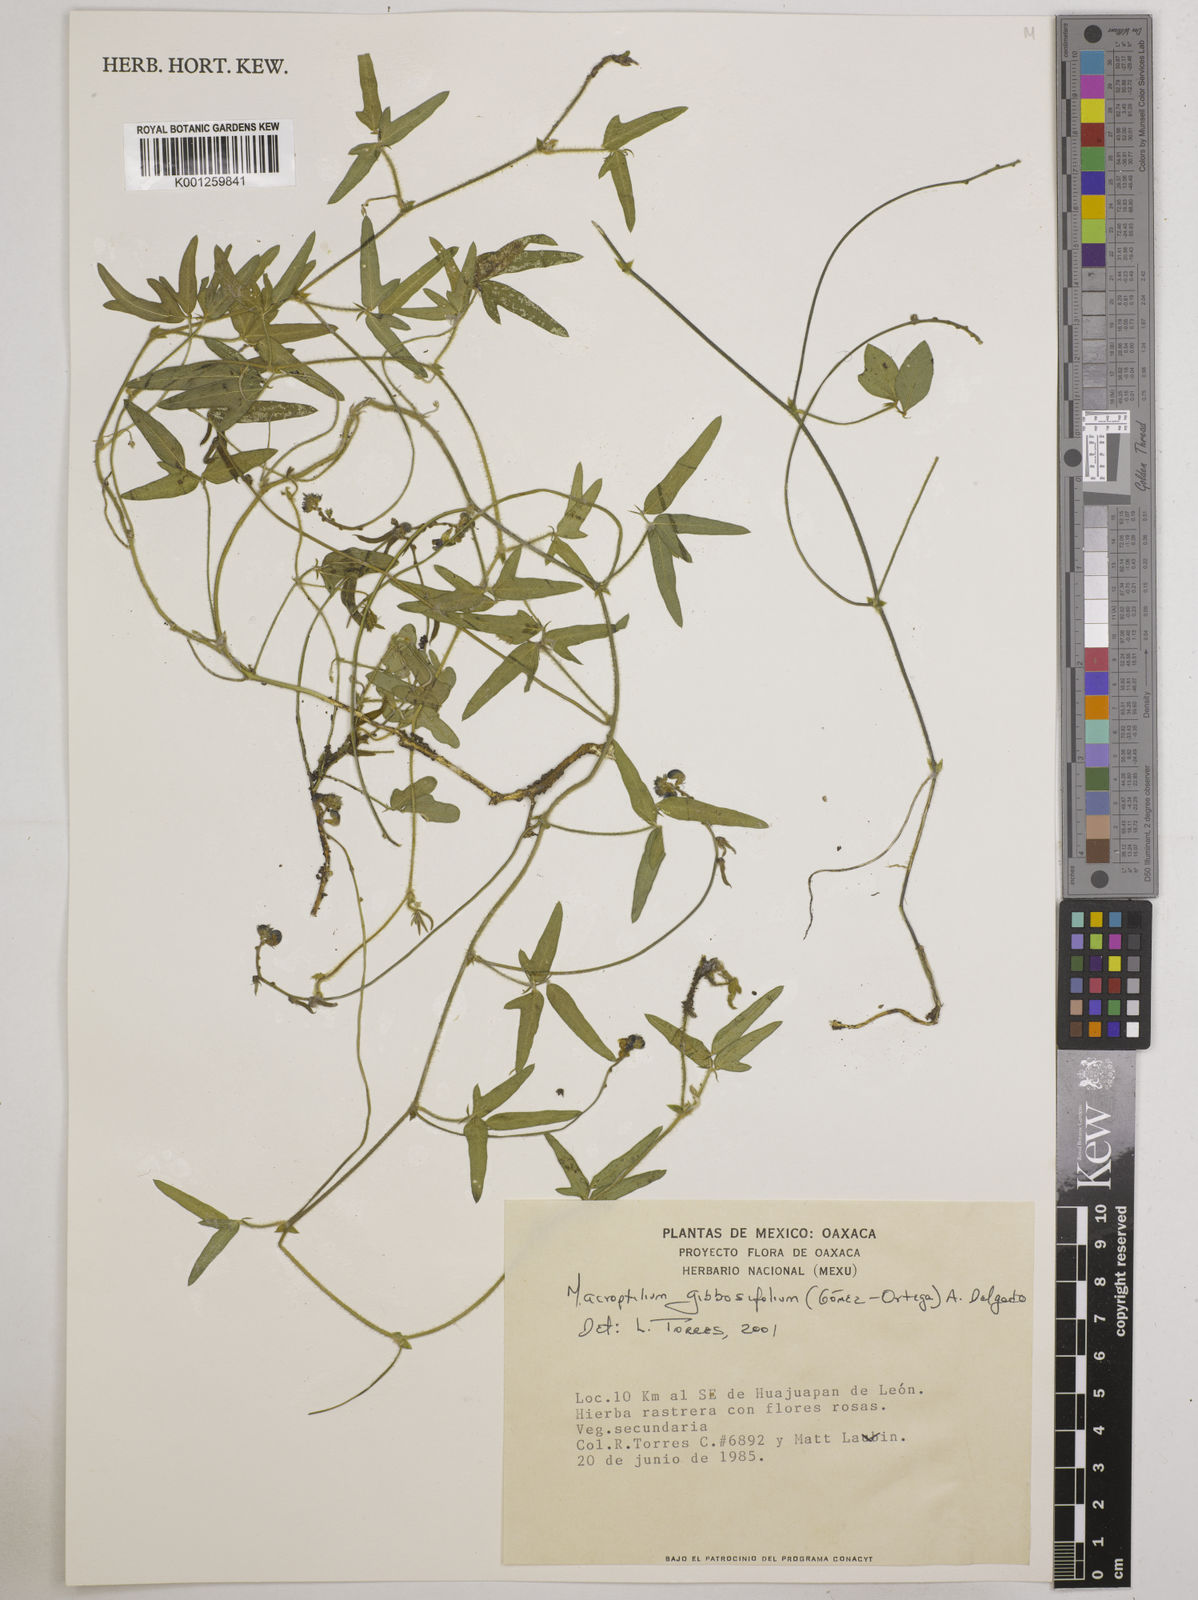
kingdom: Plantae
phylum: Tracheophyta
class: Magnoliopsida
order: Fabales
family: Fabaceae
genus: Macroptilium
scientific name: Macroptilium gibbosifolium
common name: Variableleaf bushbean
